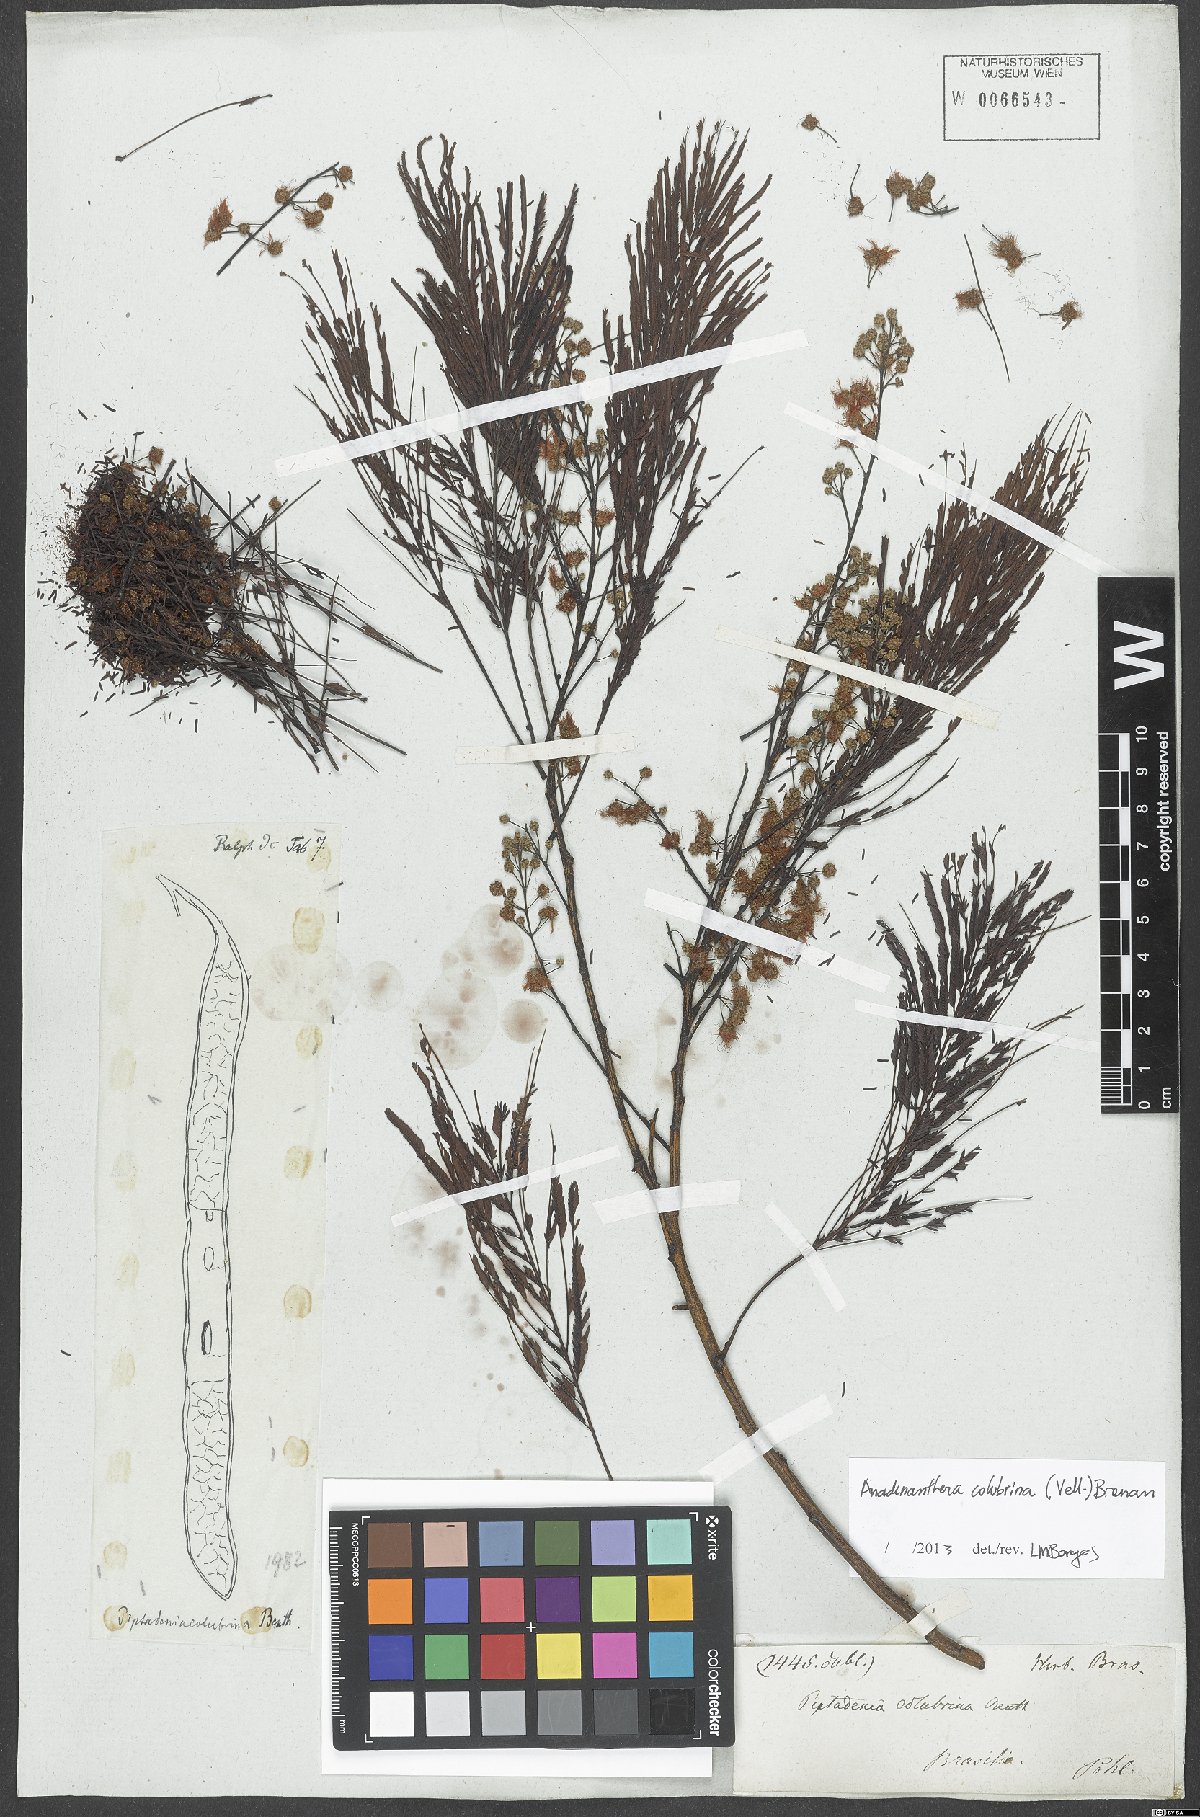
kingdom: Plantae
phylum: Tracheophyta
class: Magnoliopsida
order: Fabales
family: Fabaceae
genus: Anadenanthera
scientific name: Anadenanthera colubrina
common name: Curupay
